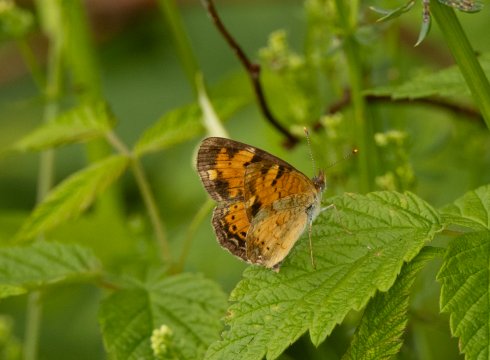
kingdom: Animalia
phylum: Arthropoda
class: Insecta
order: Lepidoptera
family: Nymphalidae
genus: Phyciodes
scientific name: Phyciodes
